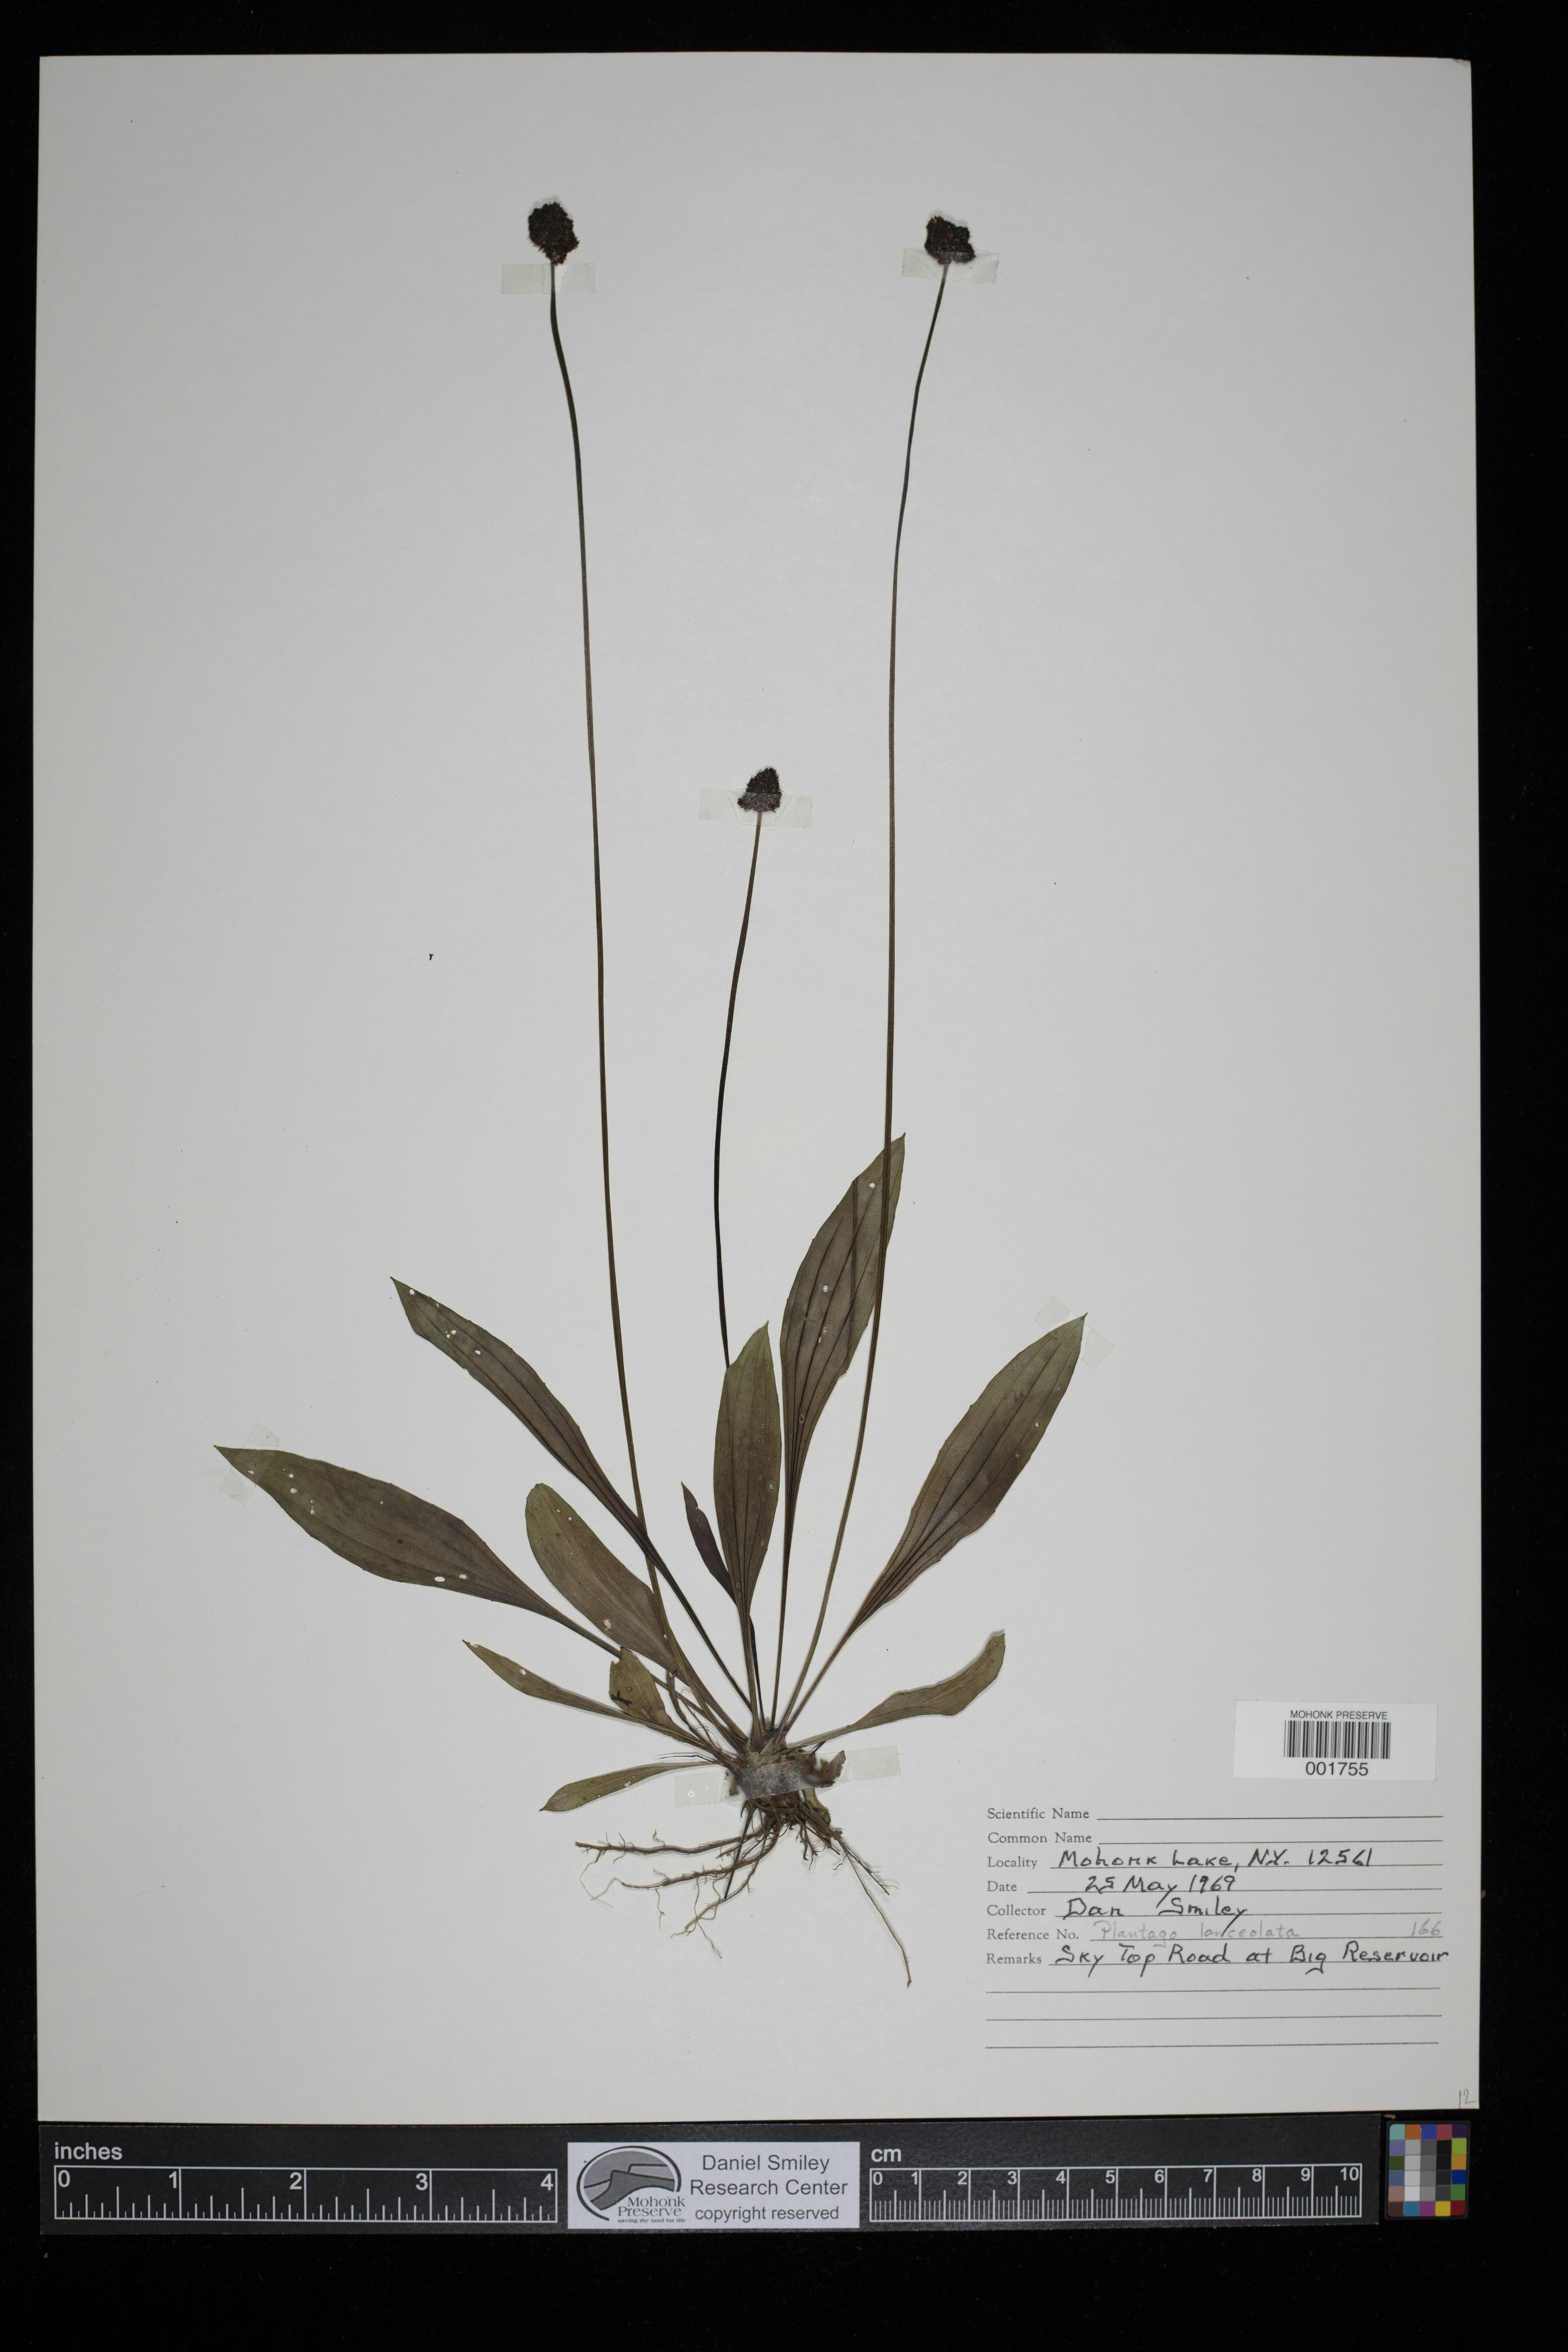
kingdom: Plantae
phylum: Tracheophyta
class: Magnoliopsida
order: Lamiales
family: Plantaginaceae
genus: Plantago
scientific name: Plantago lanceolata
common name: Ribwort plantain
